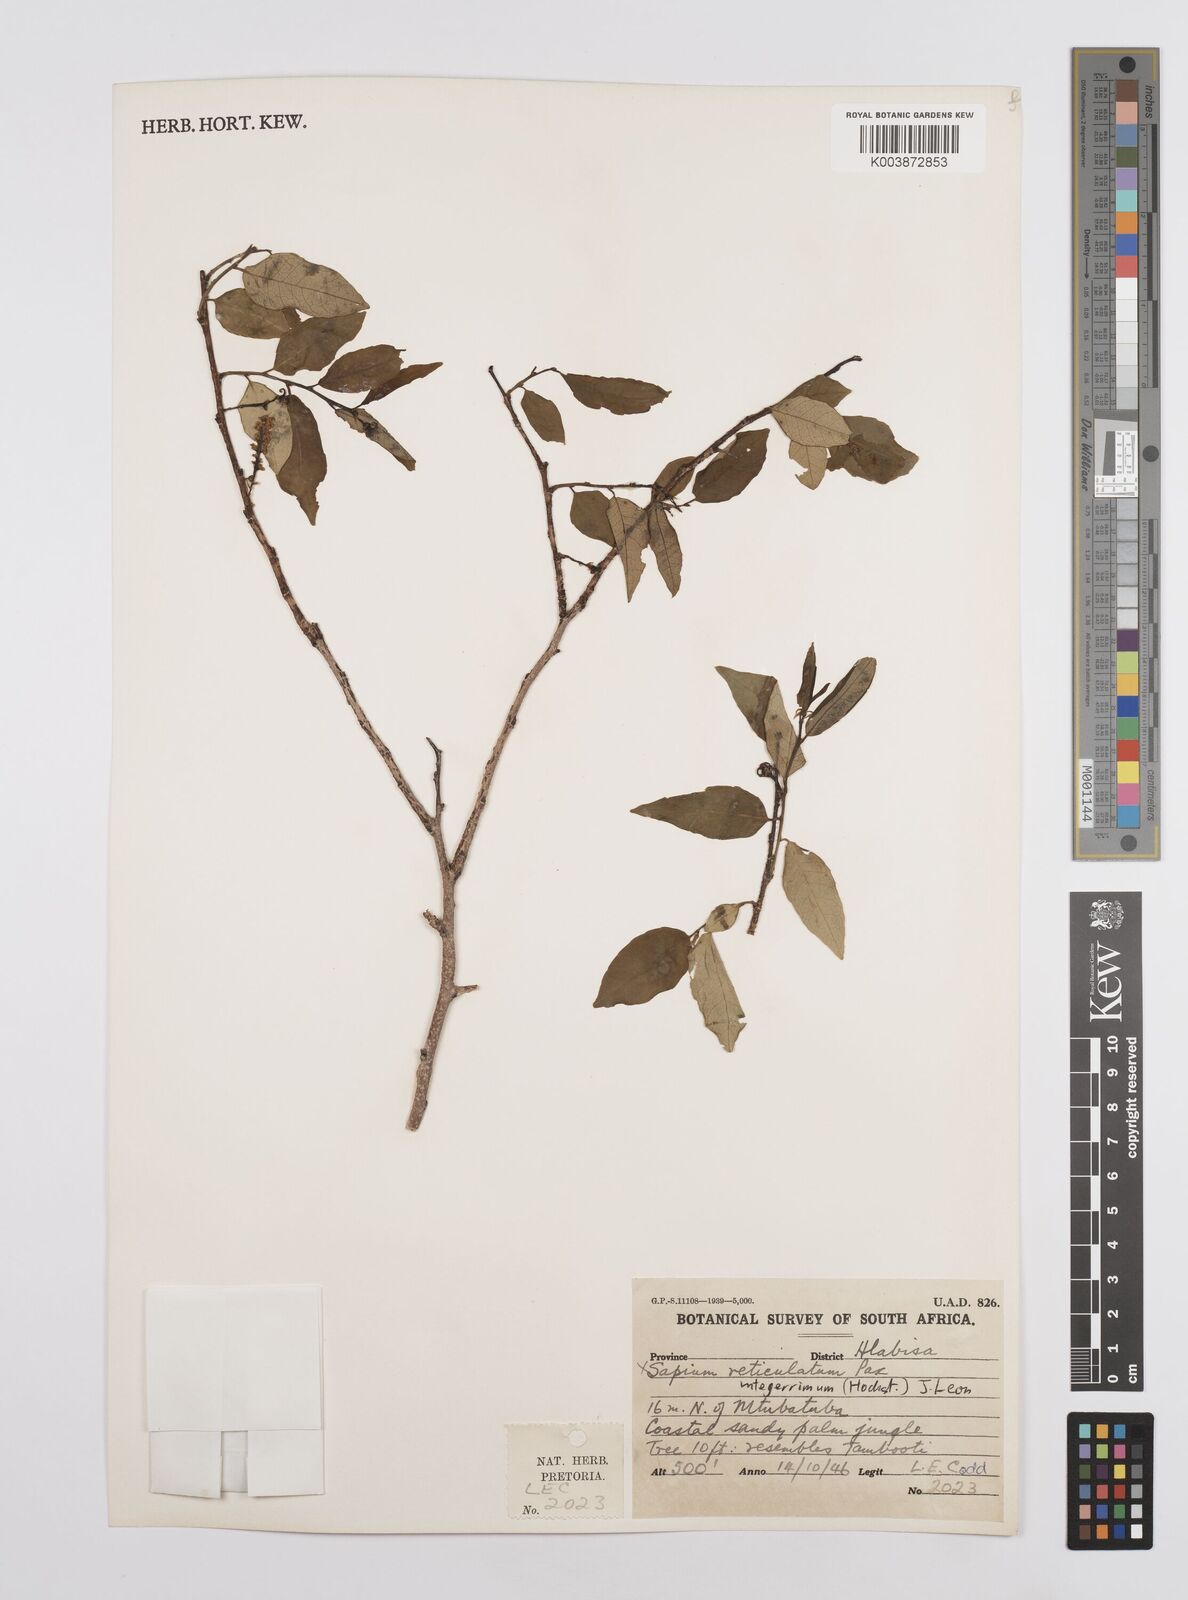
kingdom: Plantae
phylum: Tracheophyta
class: Magnoliopsida
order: Malpighiales
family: Euphorbiaceae
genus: Sclerocroton
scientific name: Sclerocroton integerrimus
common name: Duiker berry
